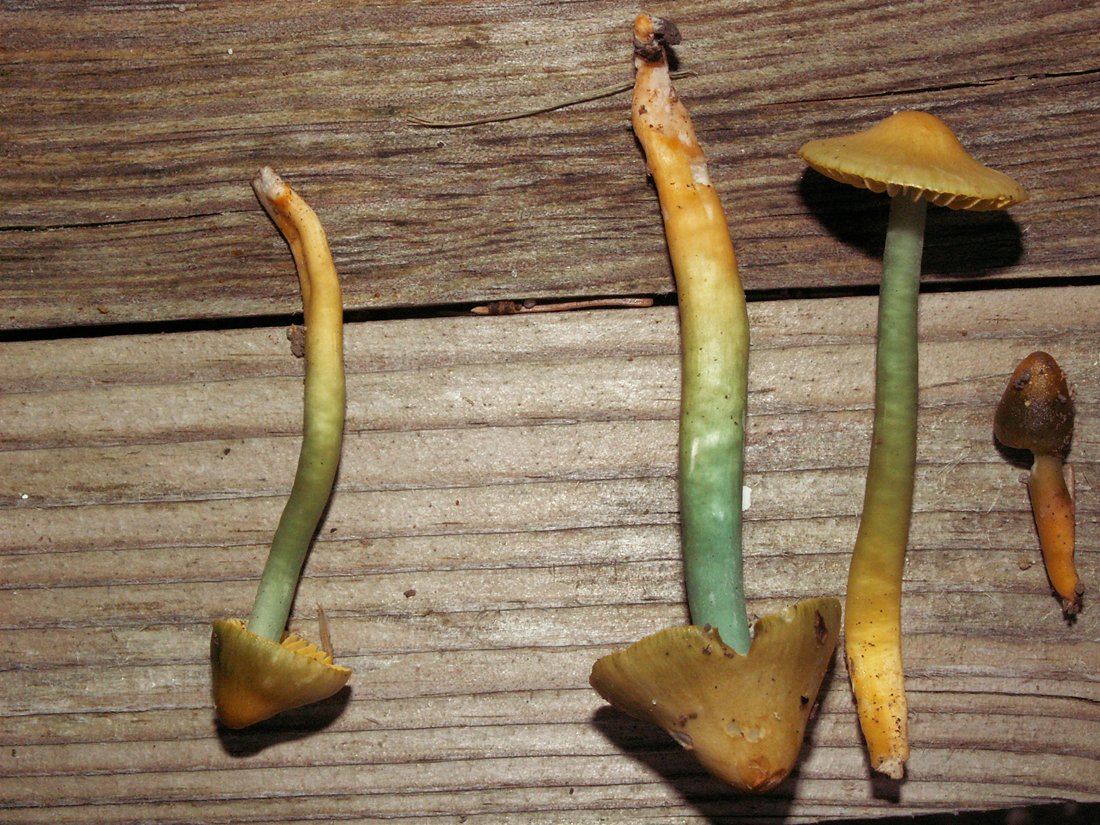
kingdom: Fungi
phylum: Basidiomycota
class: Agaricomycetes
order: Agaricales
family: Hygrophoraceae
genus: Gliophorus
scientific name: Gliophorus psittacinus
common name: papegøje-vokshat
